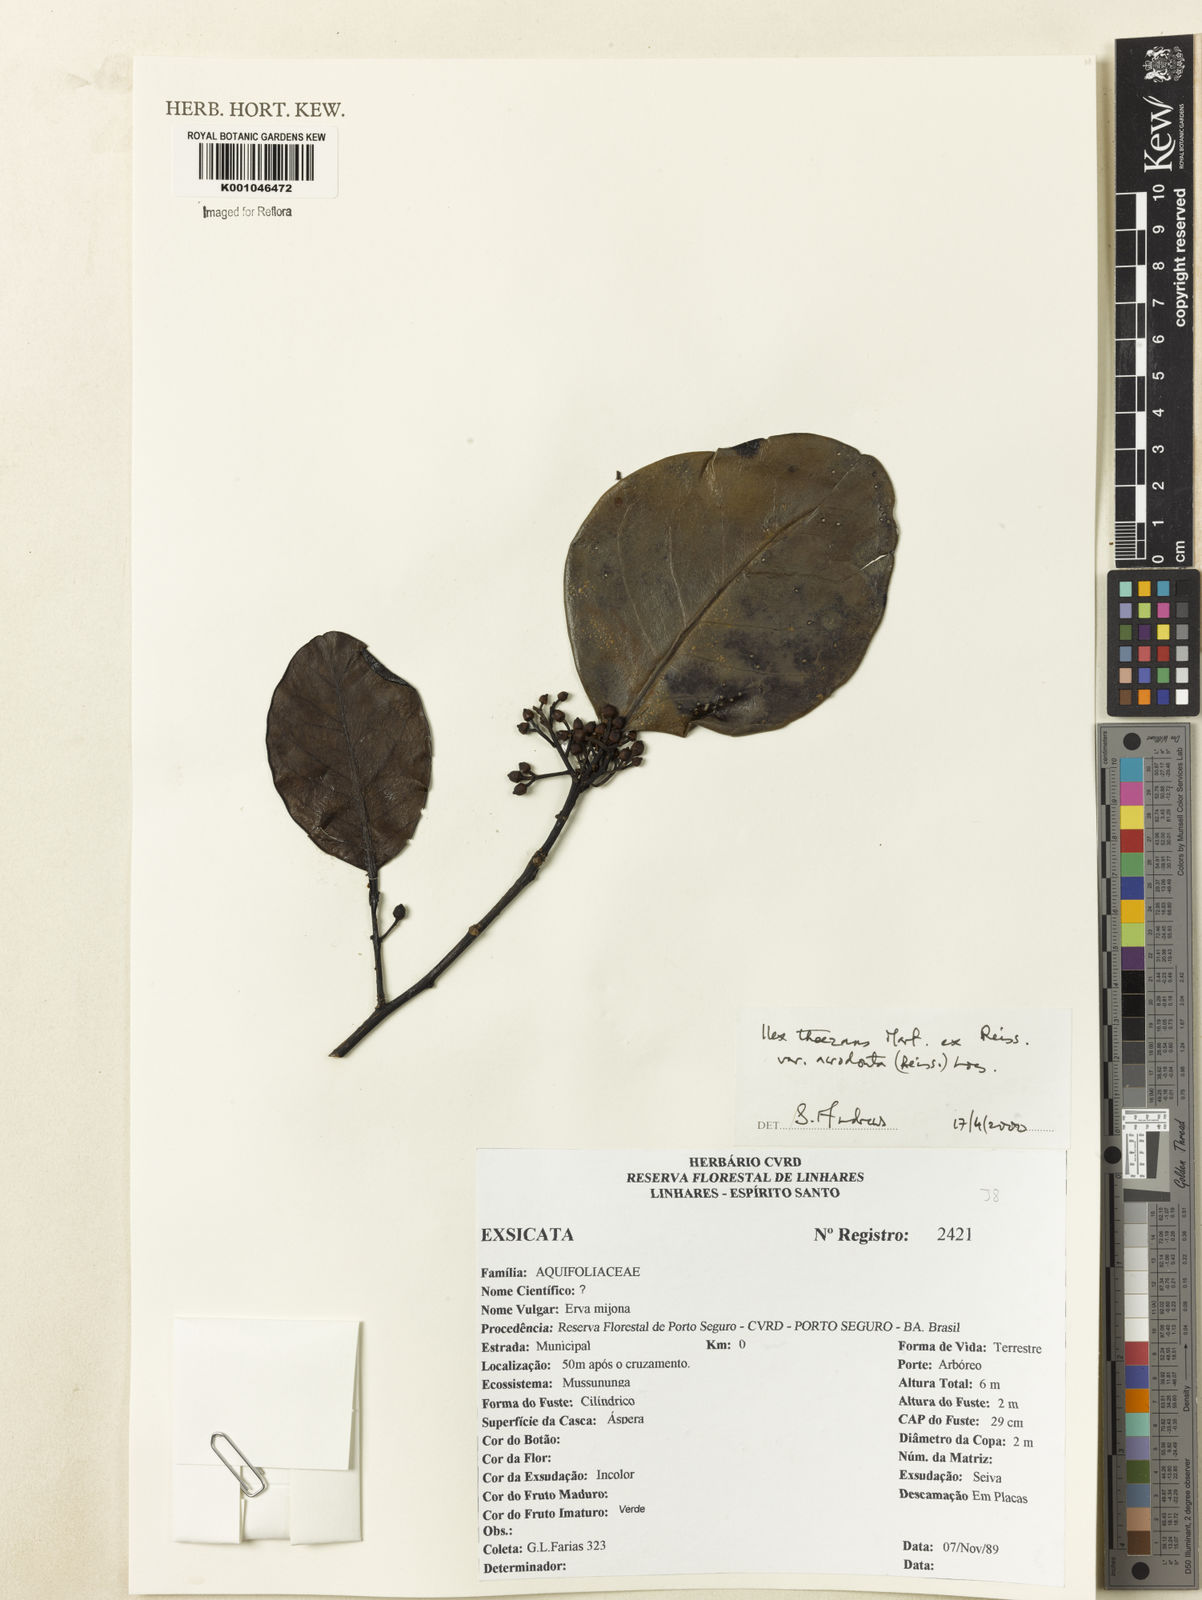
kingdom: Plantae
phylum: Tracheophyta
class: Magnoliopsida
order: Aquifoliales
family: Aquifoliaceae
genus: Ilex
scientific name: Ilex paraguariensis
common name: Paraguay tea
